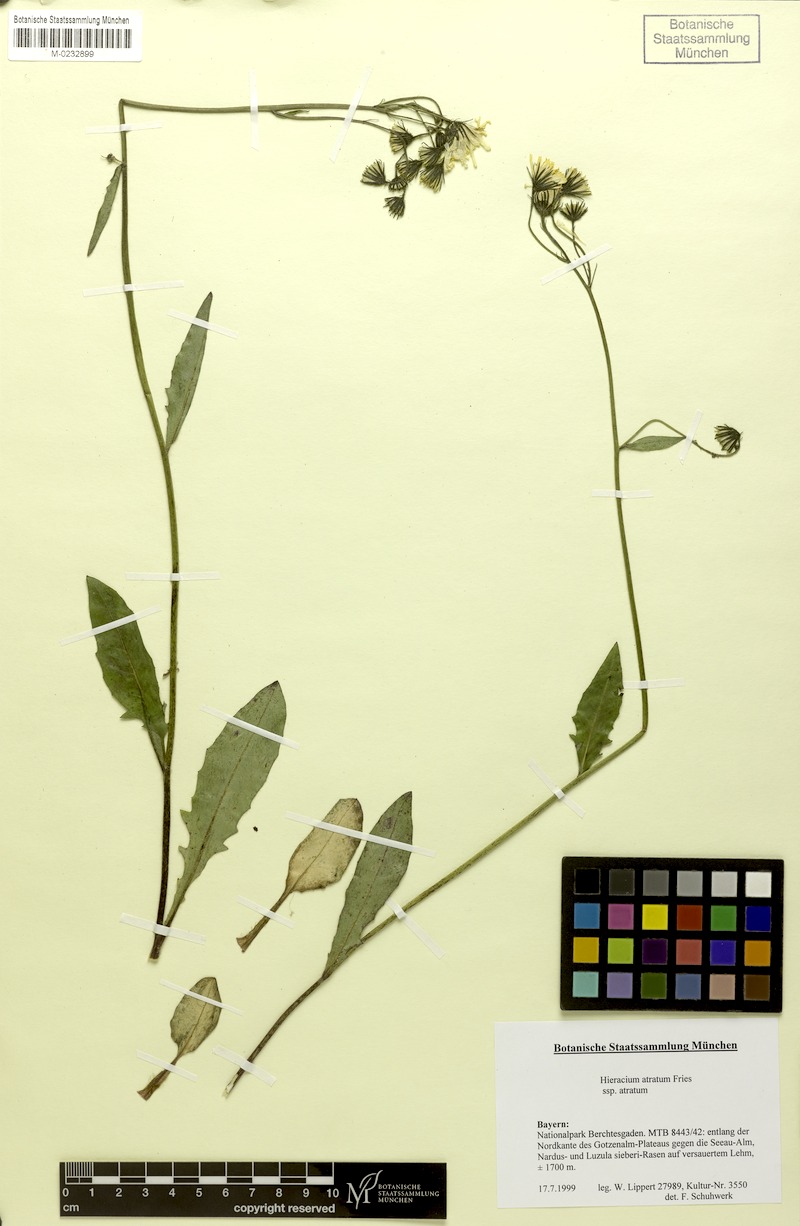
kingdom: Plantae
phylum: Tracheophyta
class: Magnoliopsida
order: Asterales
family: Asteraceae
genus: Hieracium
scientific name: Hieracium atratum
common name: Polar hawkweed
